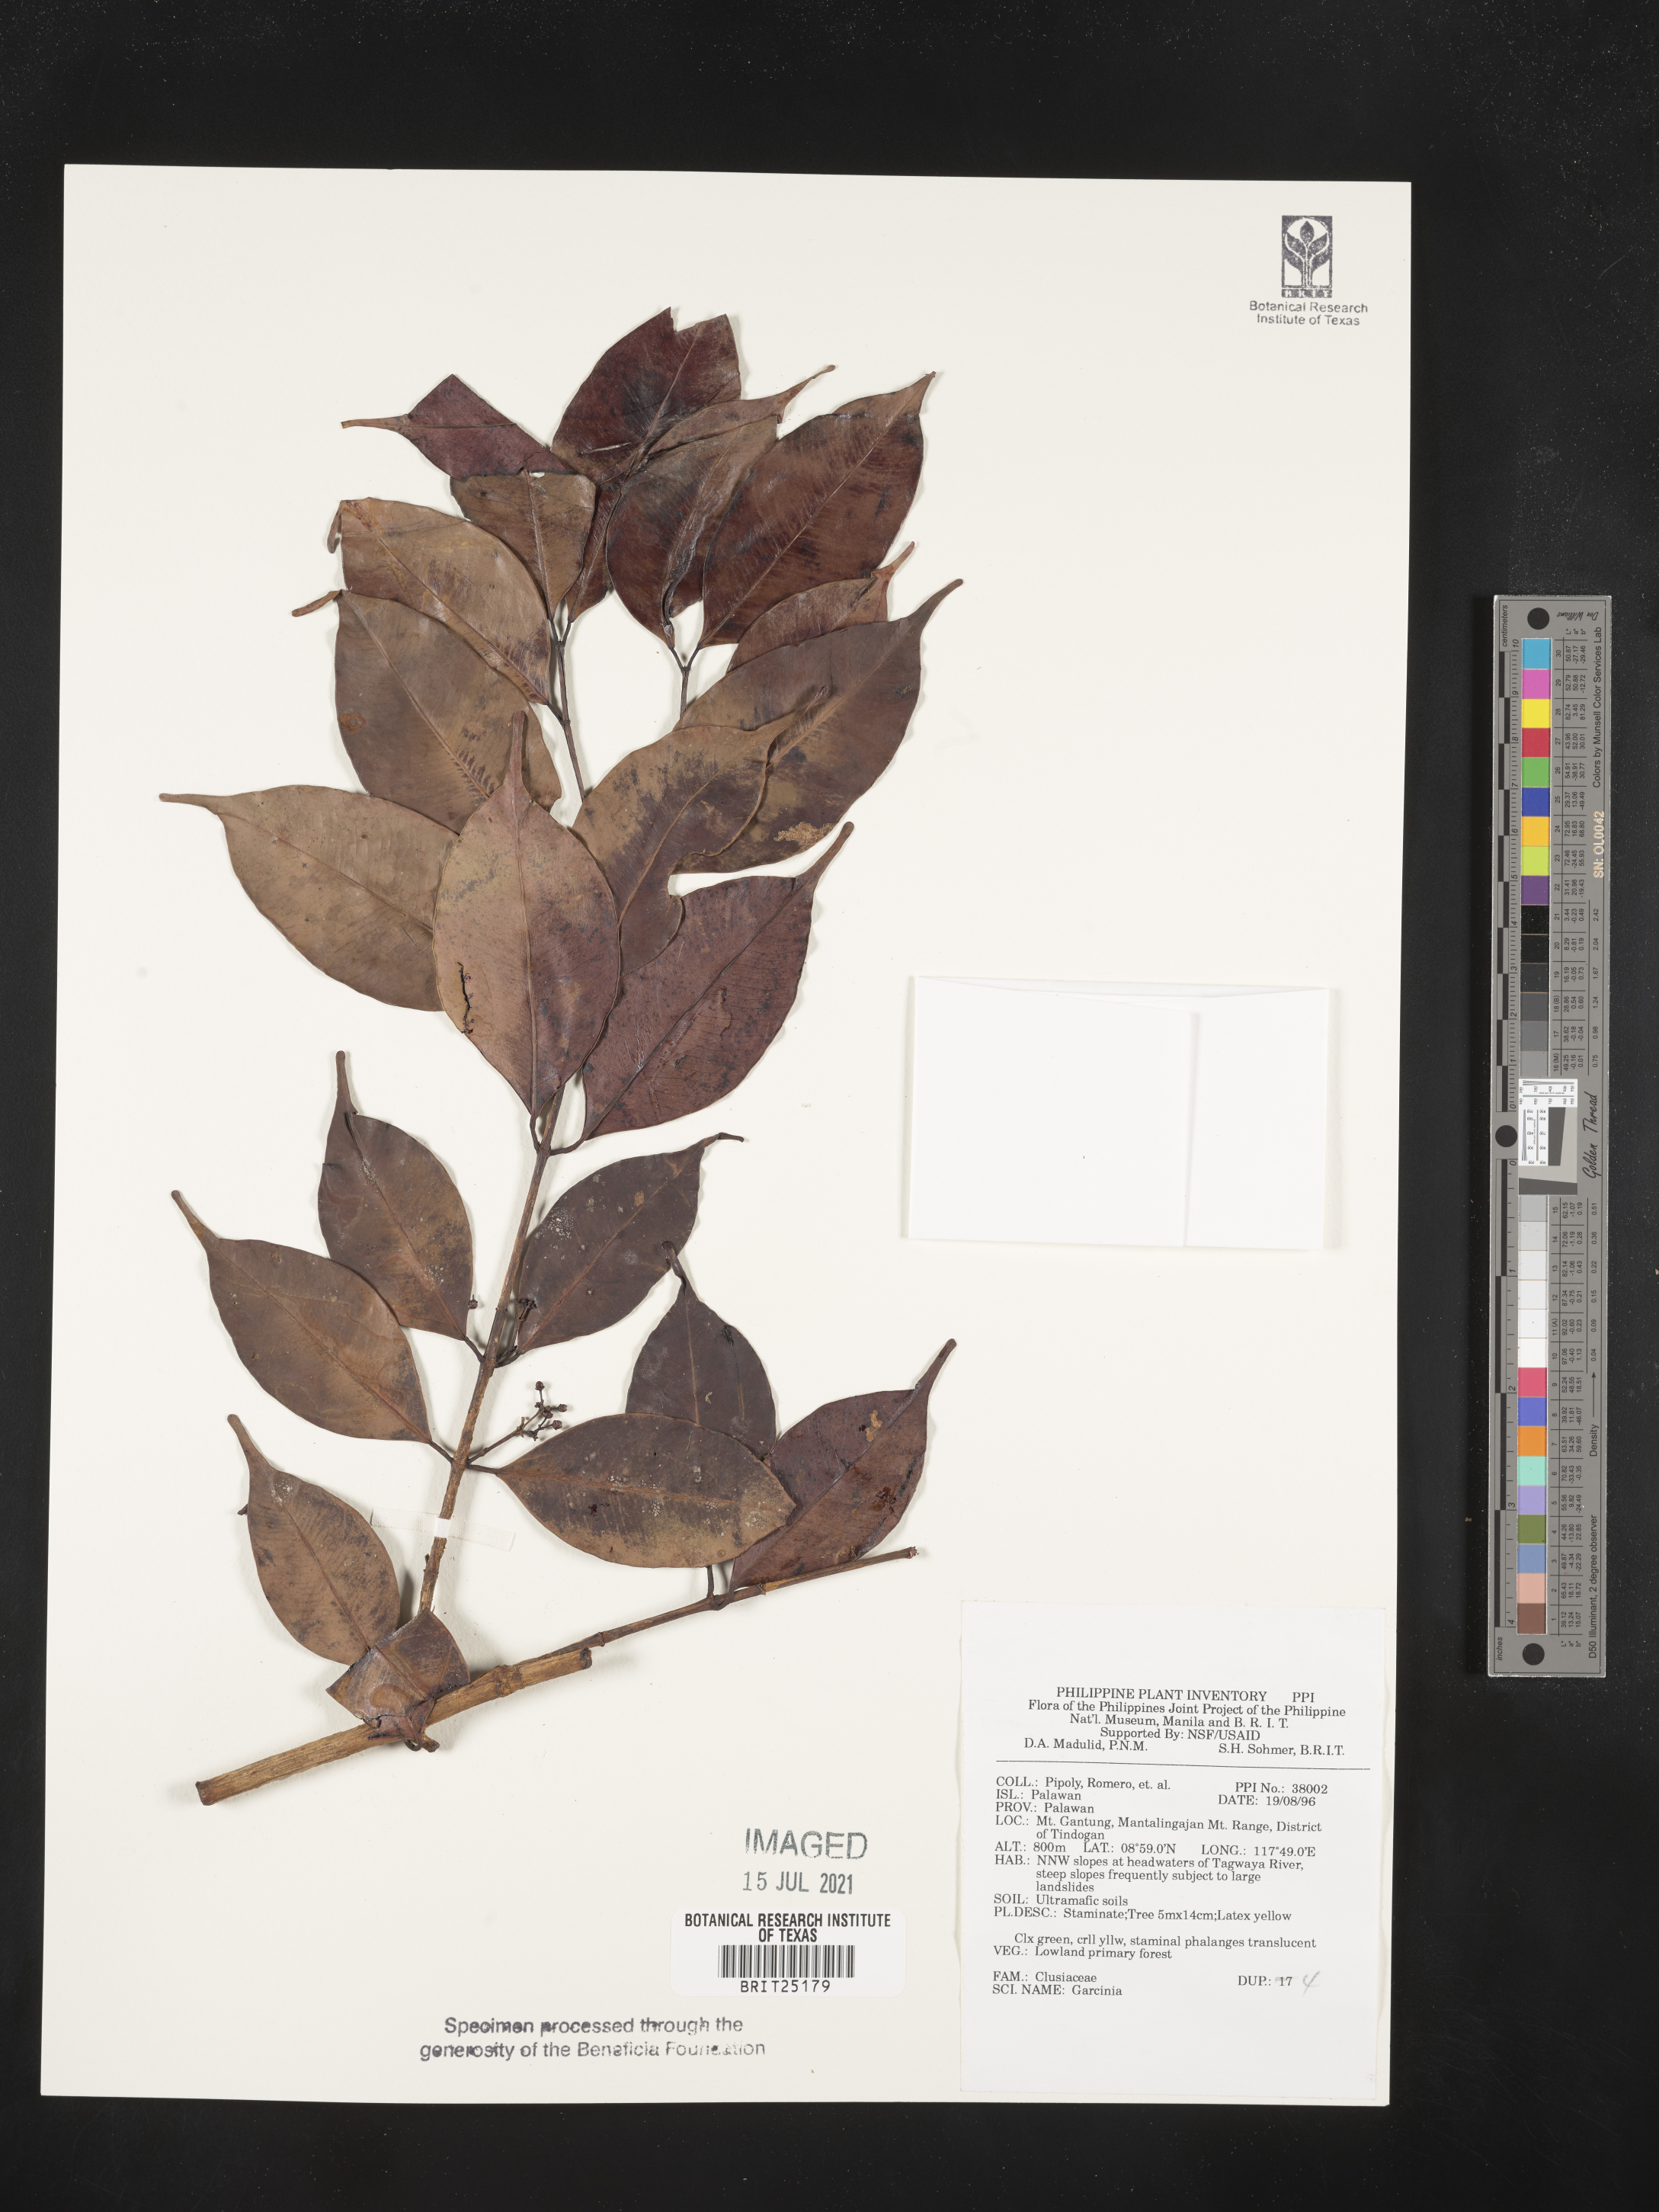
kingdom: Plantae
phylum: Tracheophyta
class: Magnoliopsida
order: Malpighiales
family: Clusiaceae
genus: Garcinia
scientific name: Garcinia
